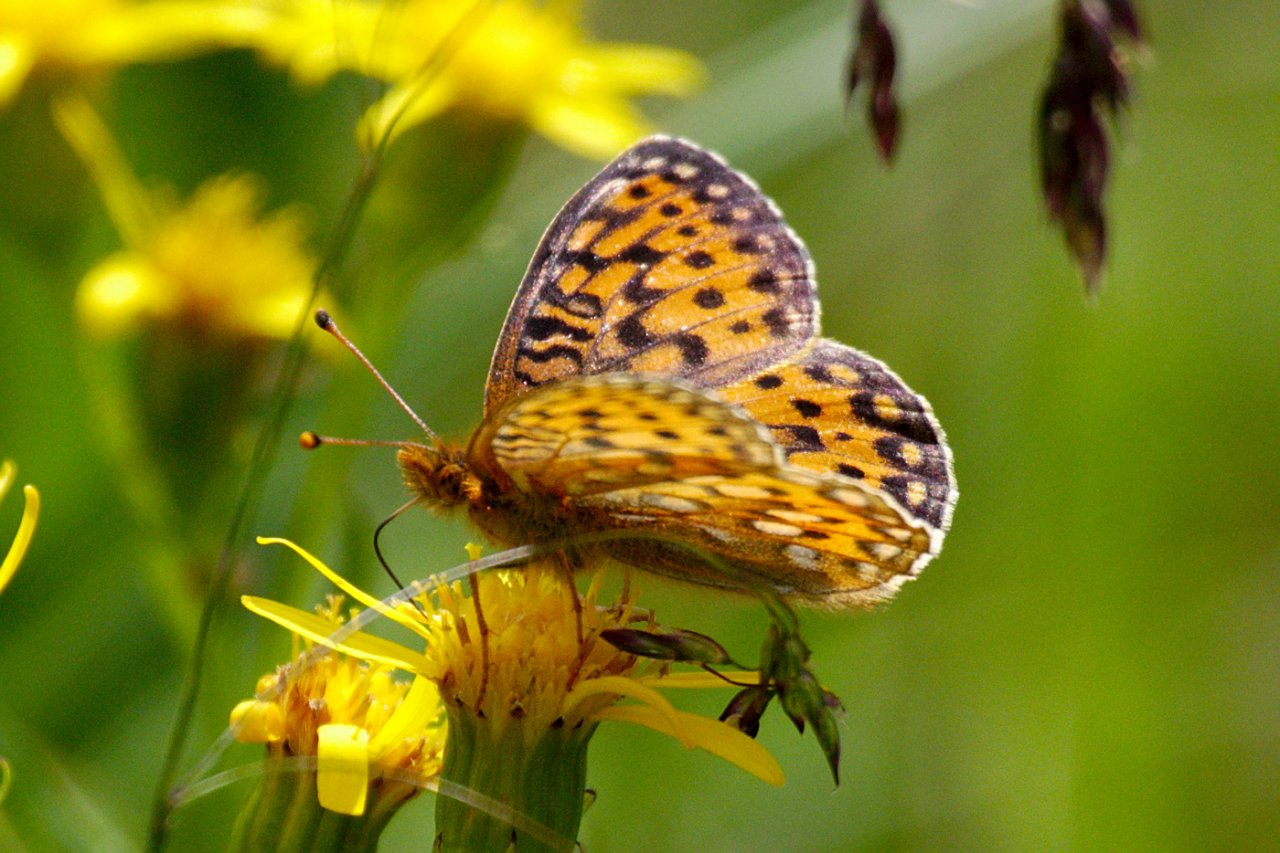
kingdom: Animalia
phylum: Arthropoda
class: Insecta
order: Lepidoptera
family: Nymphalidae
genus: Speyeria
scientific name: Speyeria mormonia
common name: Mormon Fritillary
